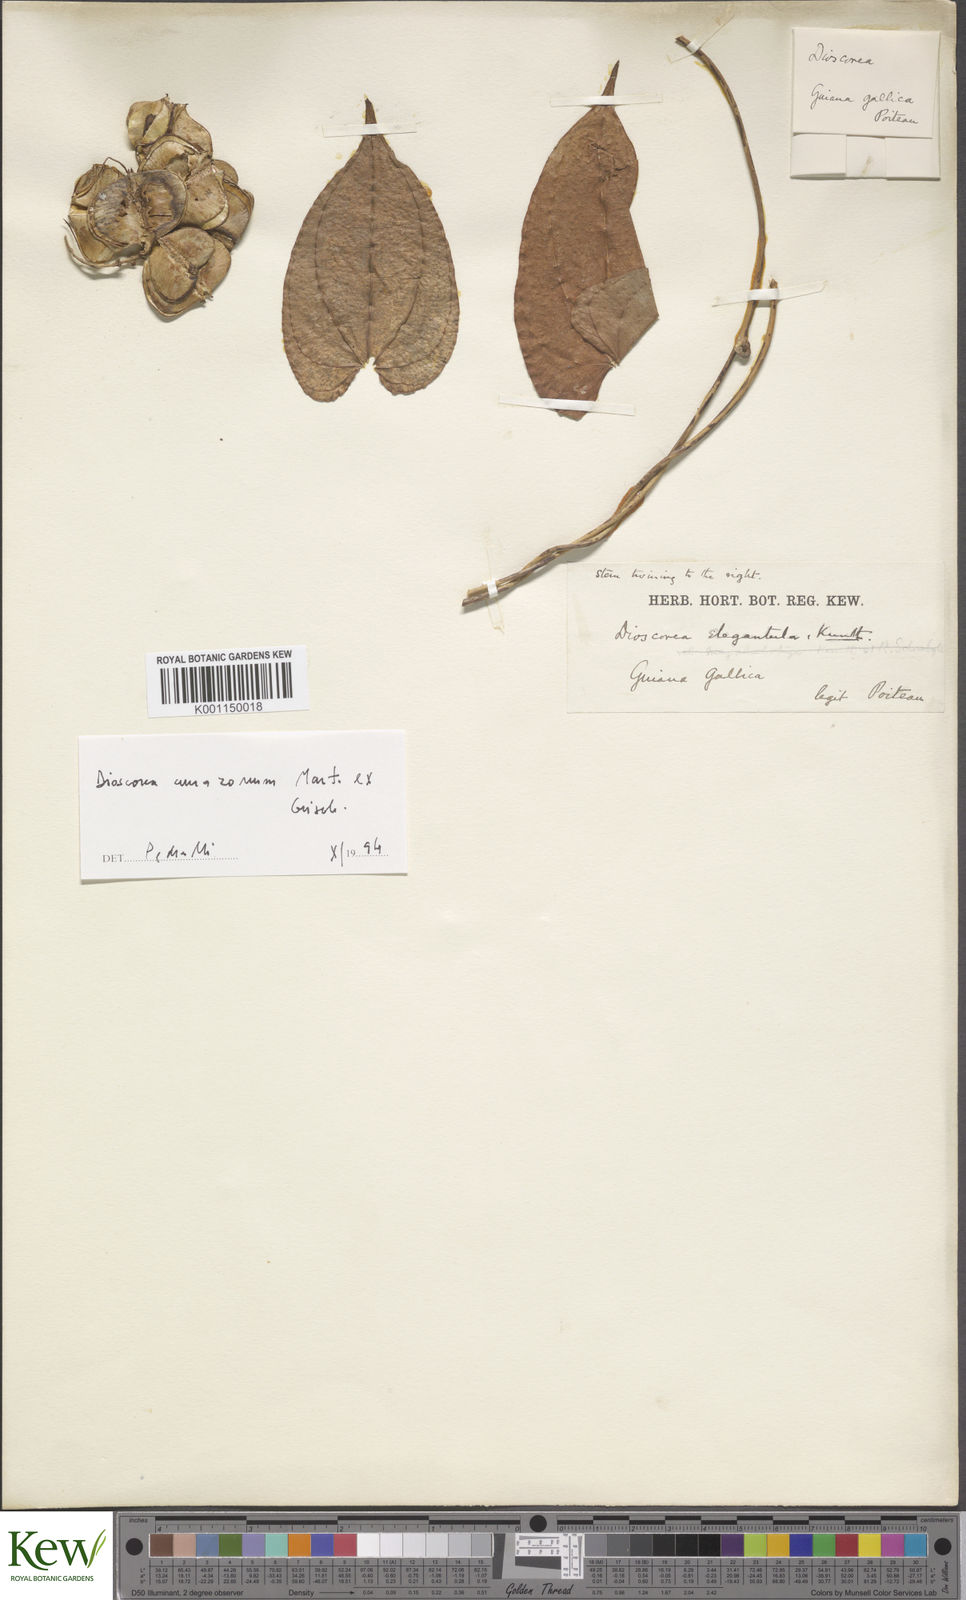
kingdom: Plantae
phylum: Tracheophyta
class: Liliopsida
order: Dioscoreales
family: Dioscoreaceae
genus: Dioscorea
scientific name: Dioscorea amazonum
